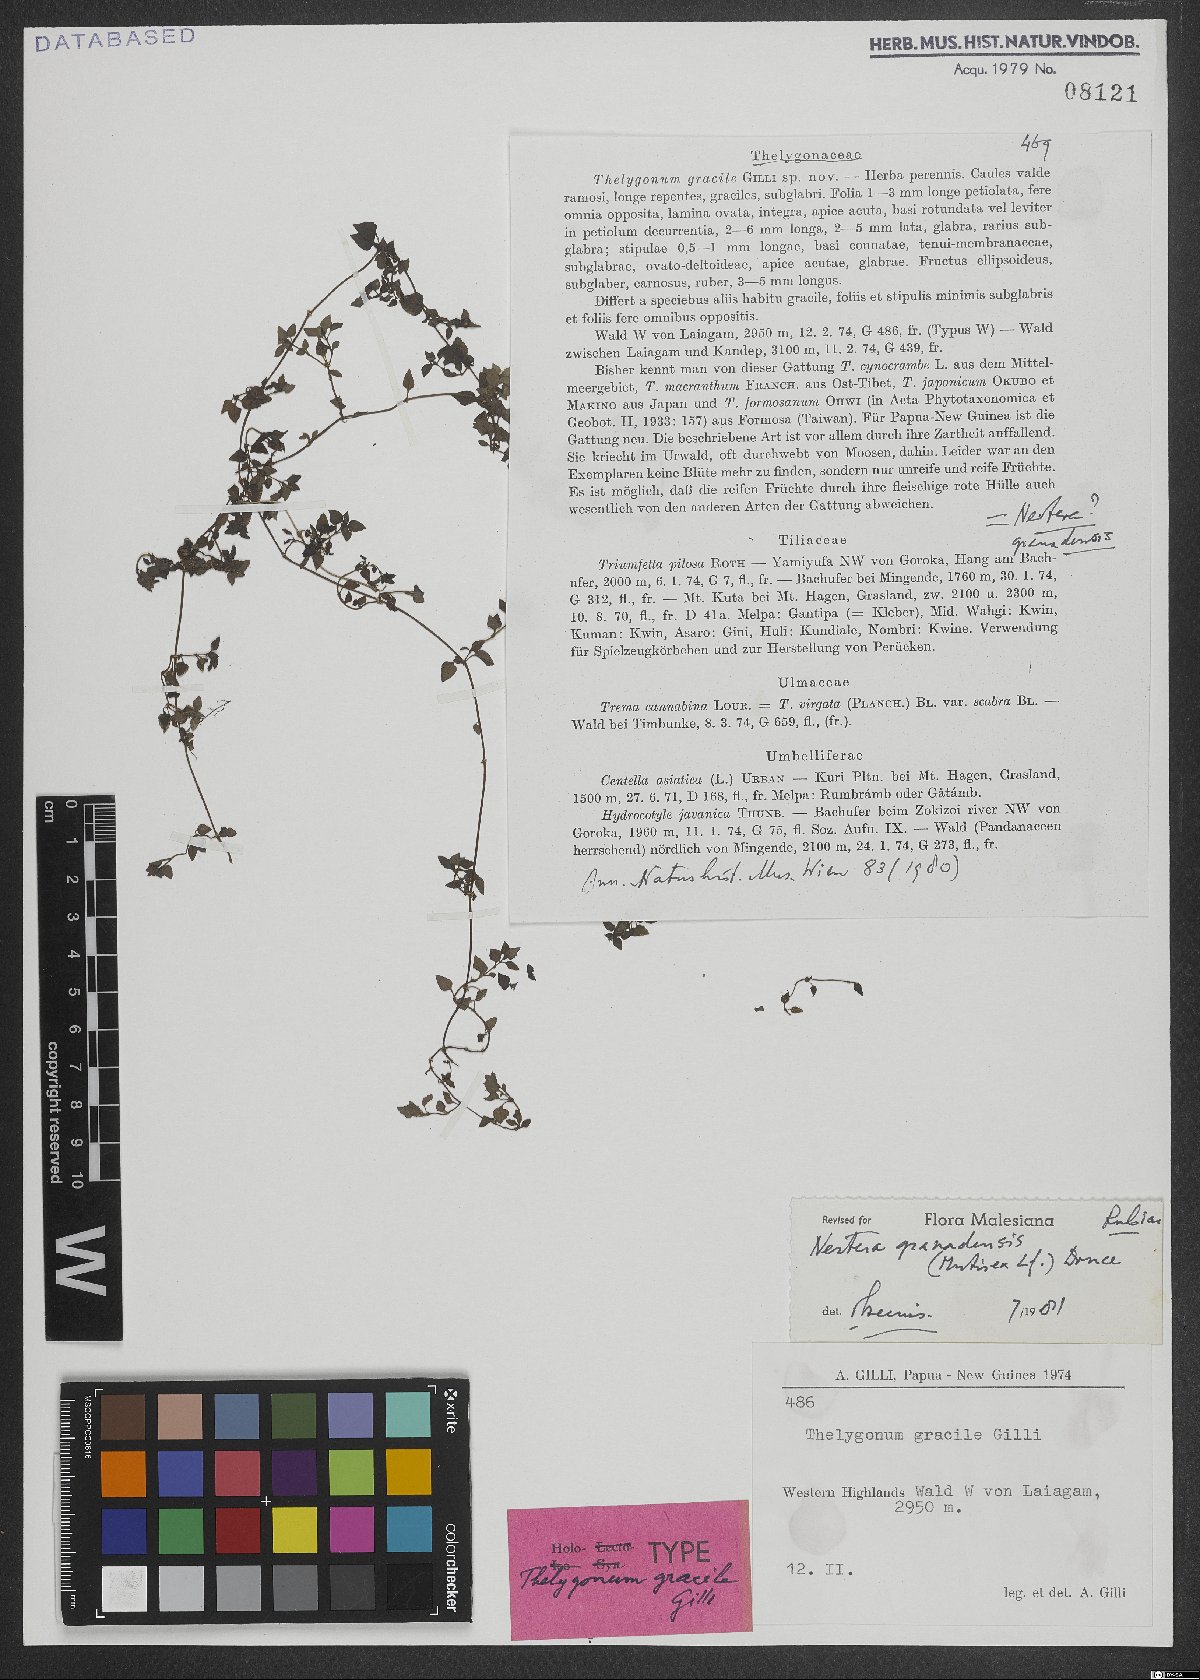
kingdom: Plantae
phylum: Tracheophyta
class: Magnoliopsida
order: Gentianales
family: Rubiaceae
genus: Nertera
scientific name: Nertera granadensis
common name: Beadplant
